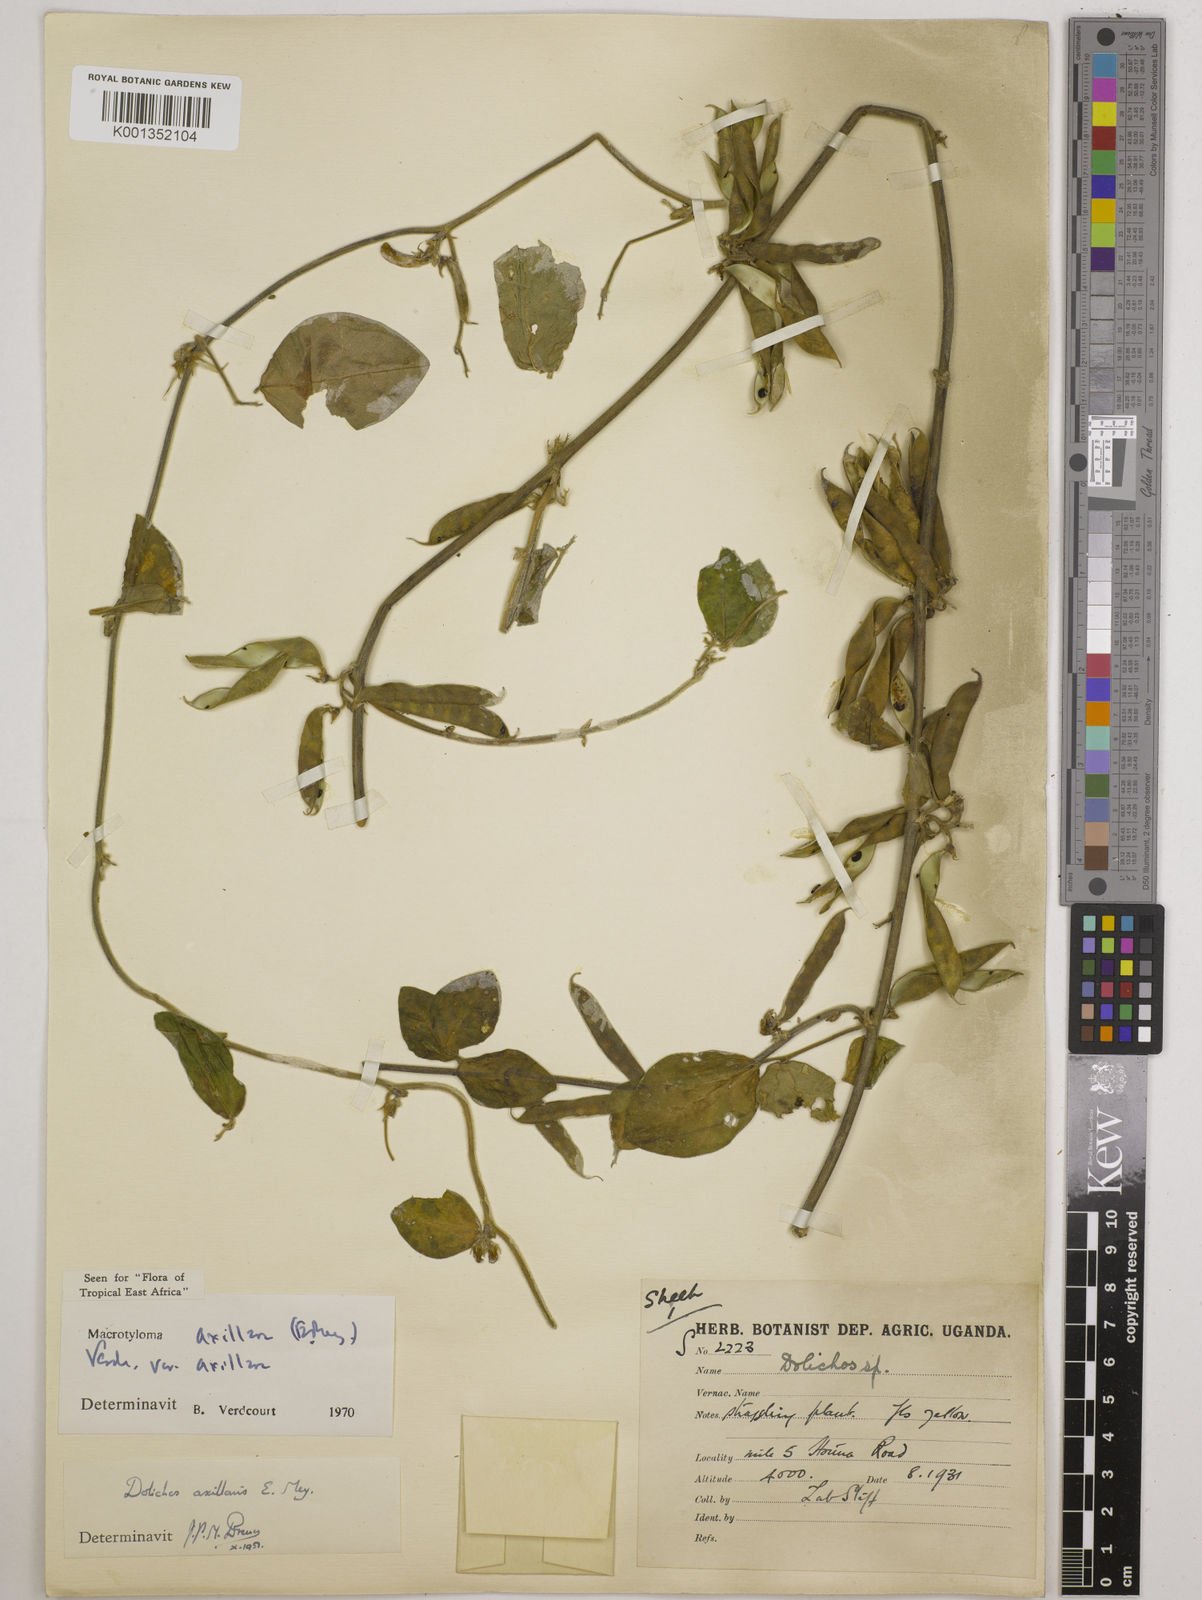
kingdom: Plantae
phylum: Tracheophyta
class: Magnoliopsida
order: Fabales
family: Fabaceae
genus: Macrotyloma
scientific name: Macrotyloma axillare
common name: Perennial horsegram
